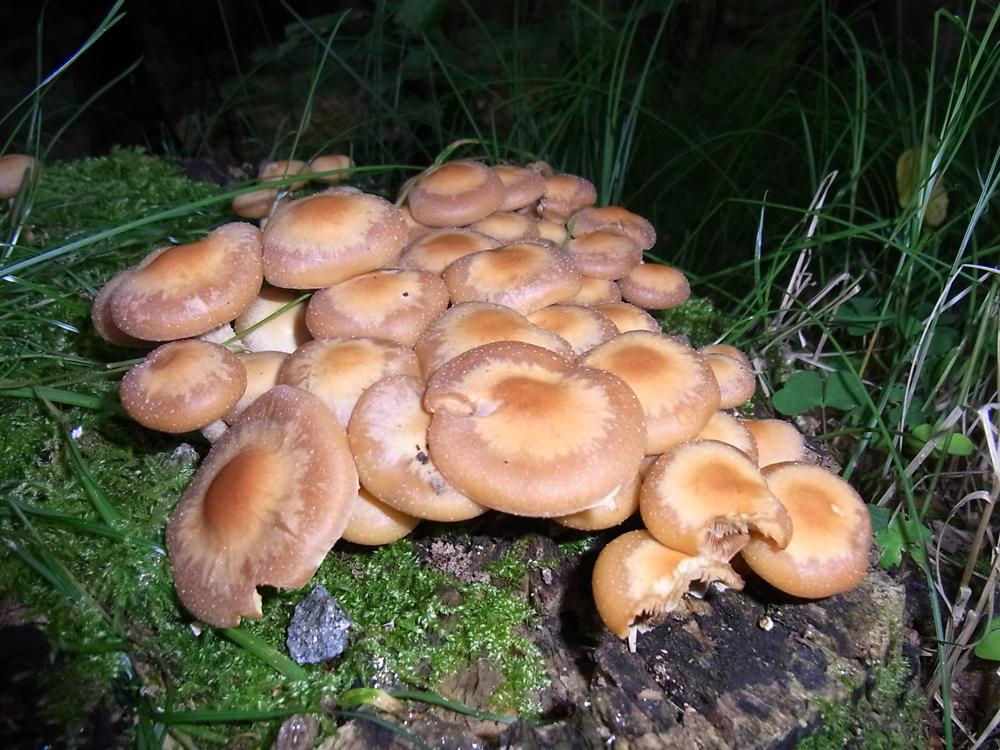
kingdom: Fungi
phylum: Basidiomycota
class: Agaricomycetes
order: Agaricales
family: Strophariaceae
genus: Kuehneromyces
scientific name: Kuehneromyces mutabilis
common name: Sheathed woodtuft
